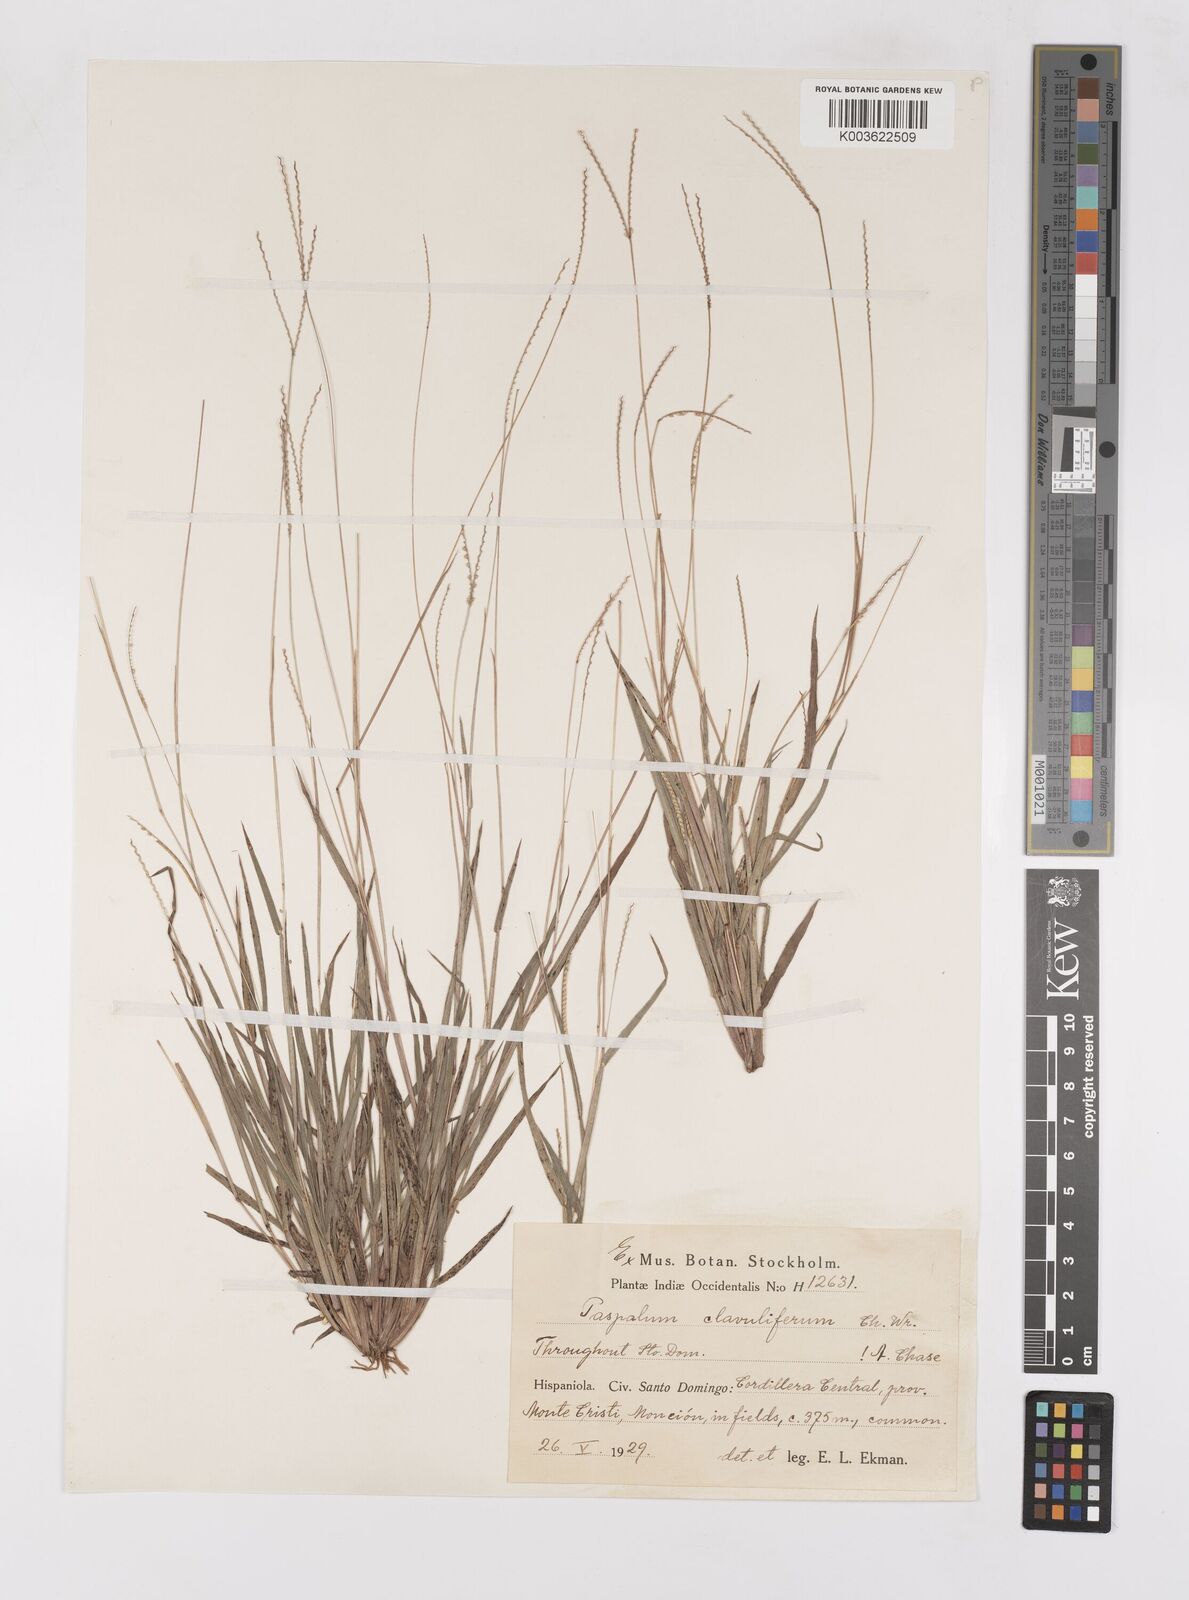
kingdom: Plantae
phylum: Tracheophyta
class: Liliopsida
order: Poales
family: Poaceae
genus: Paspalum
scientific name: Paspalum clavuliferum
